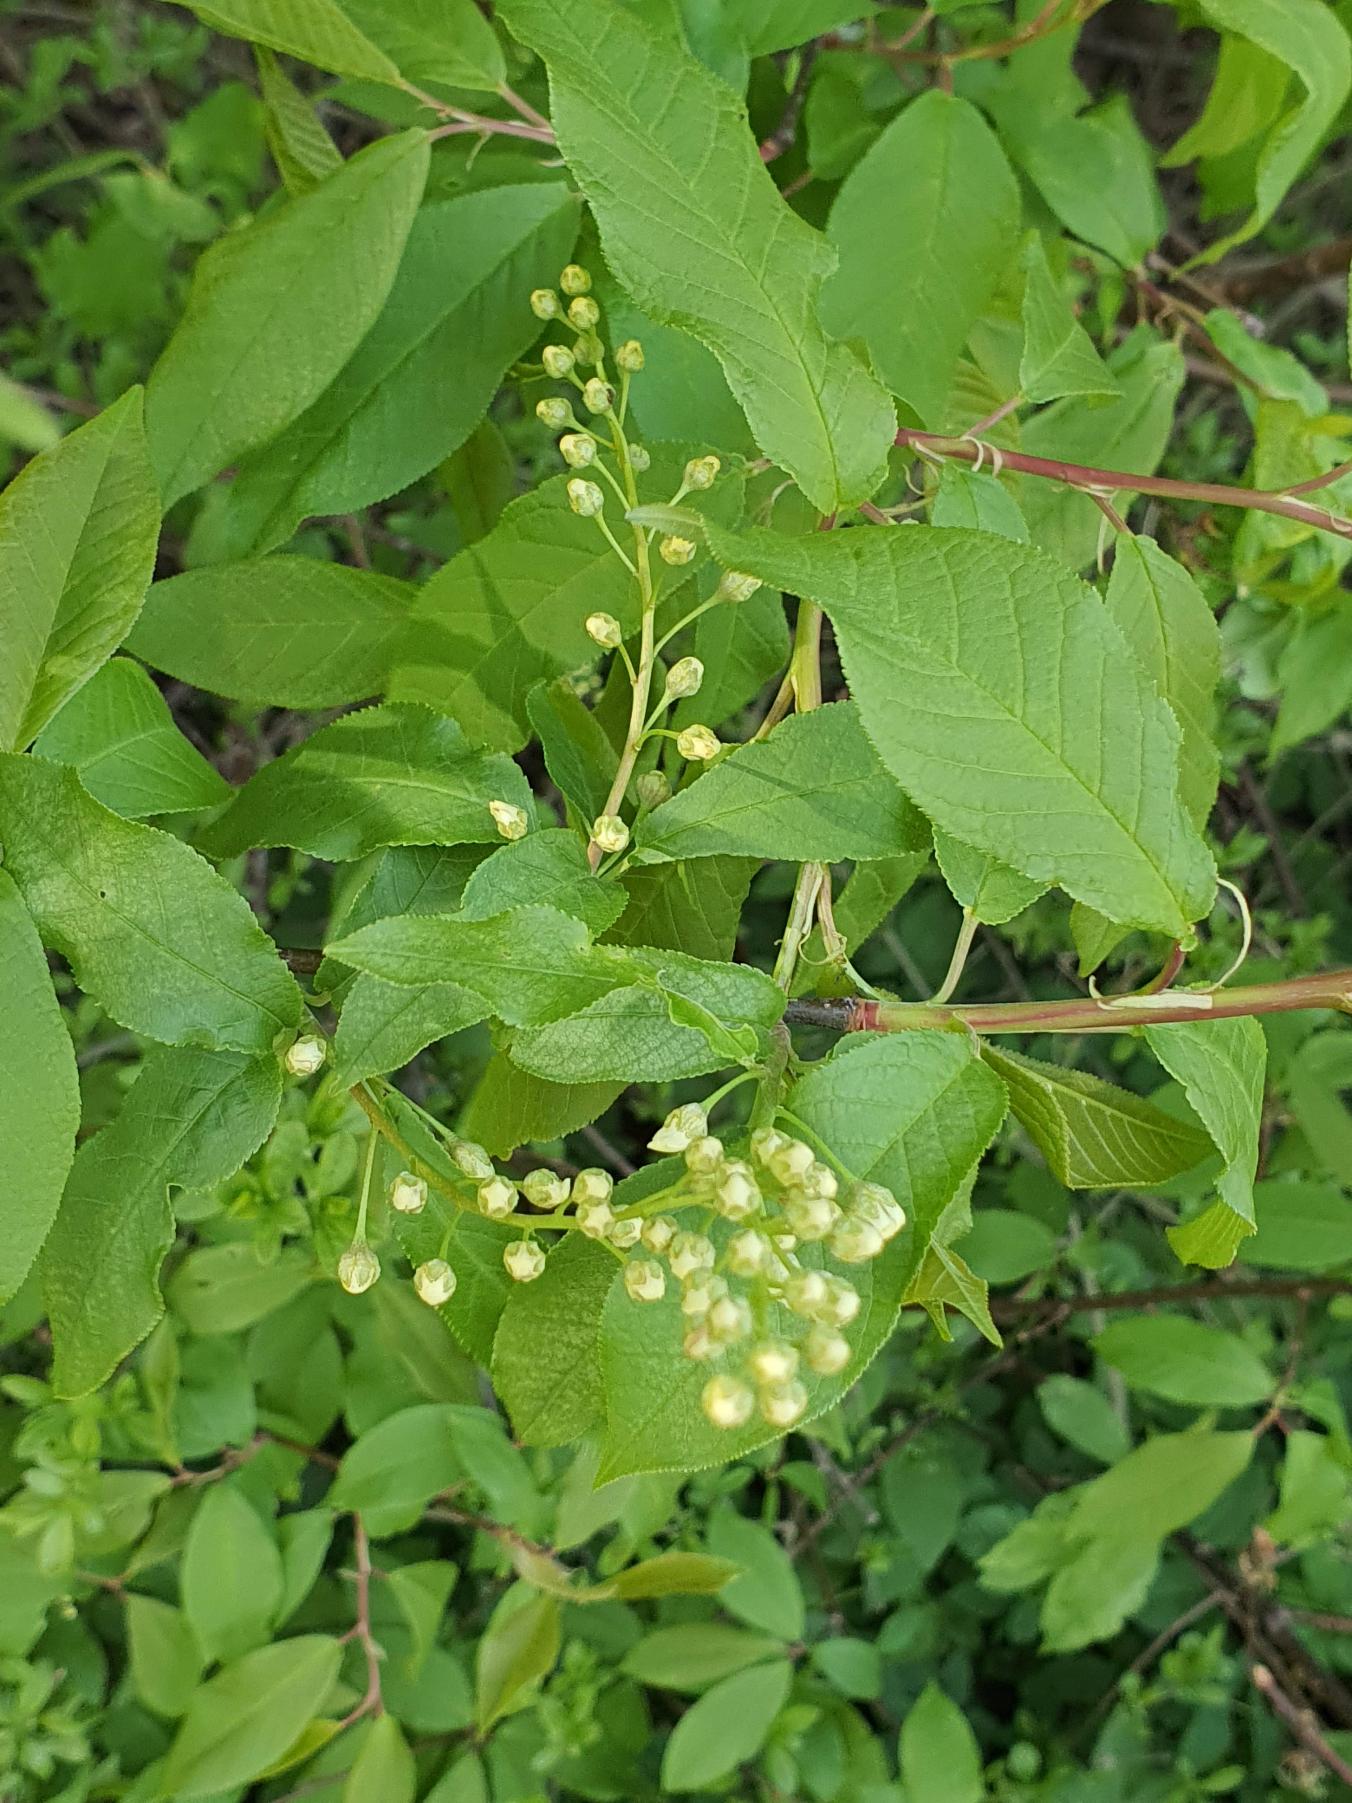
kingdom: Plantae
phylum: Tracheophyta
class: Magnoliopsida
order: Rosales
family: Rosaceae
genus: Prunus
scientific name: Prunus padus
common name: Almindelig hæg
